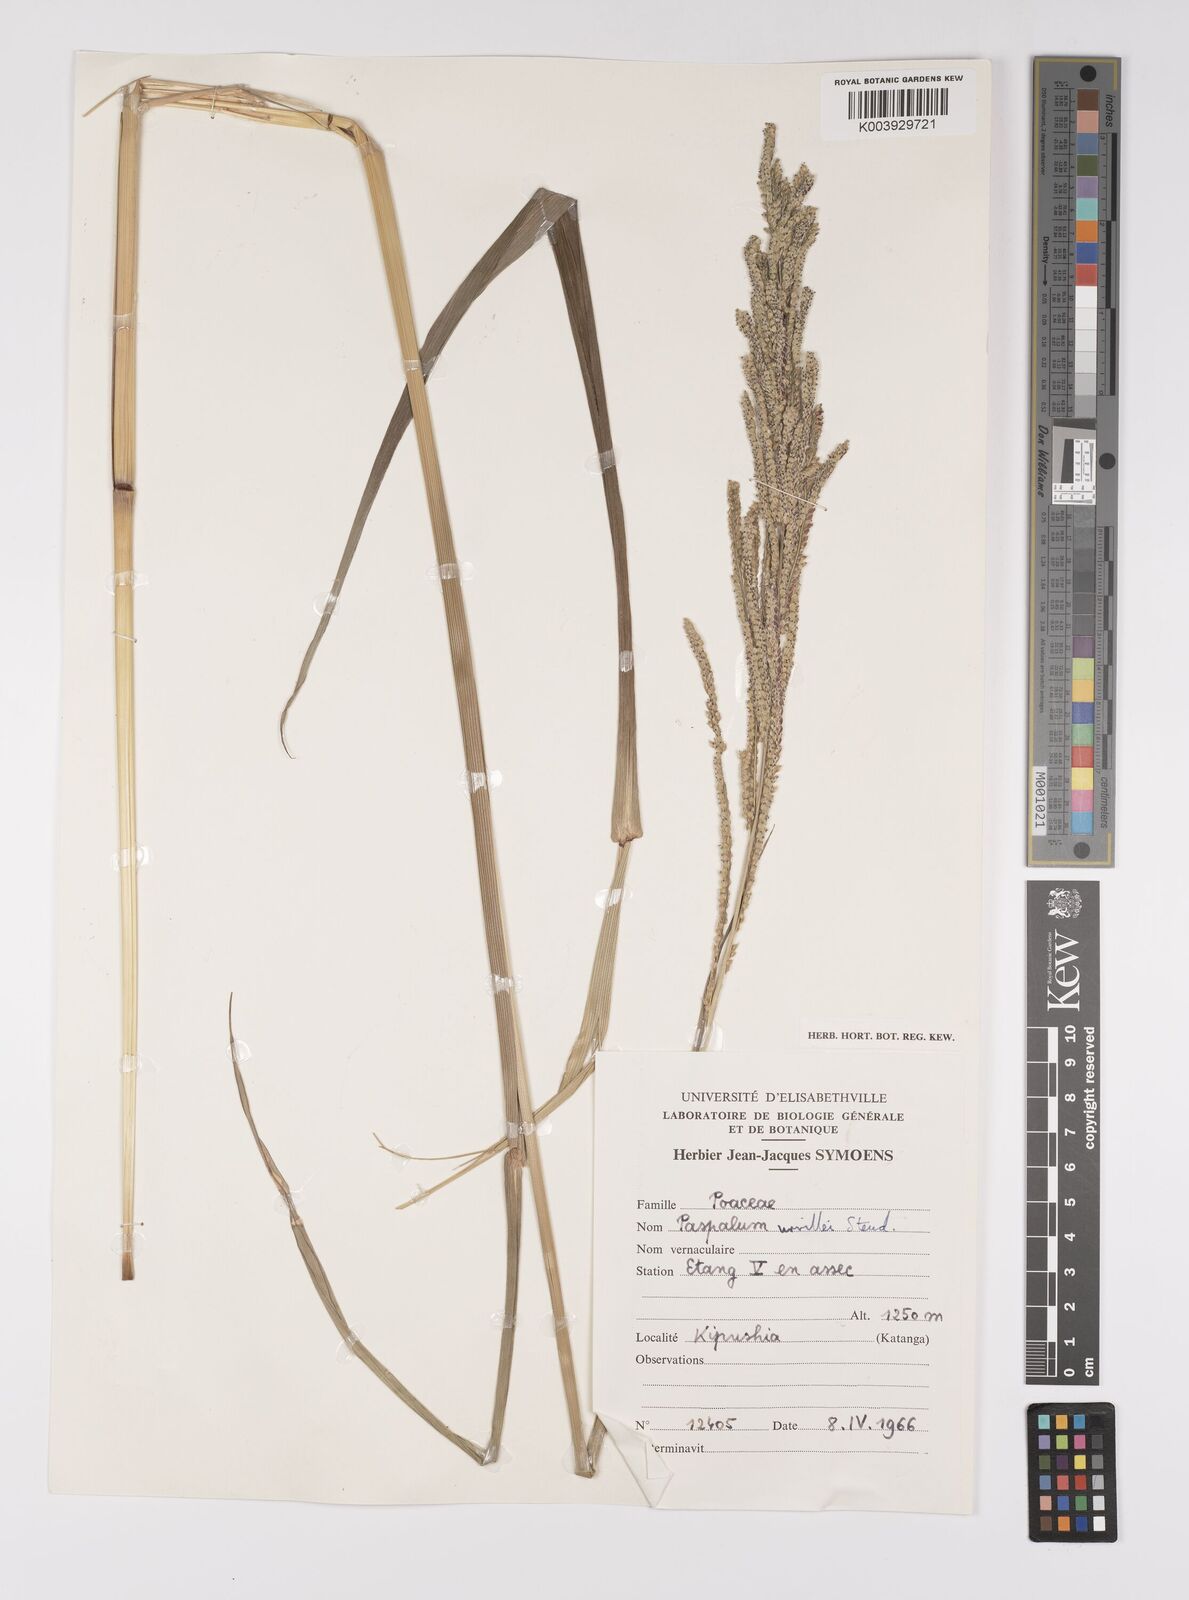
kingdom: Plantae
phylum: Tracheophyta
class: Liliopsida
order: Poales
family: Poaceae
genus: Paspalum
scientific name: Paspalum urvillei
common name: Vasey's grass
